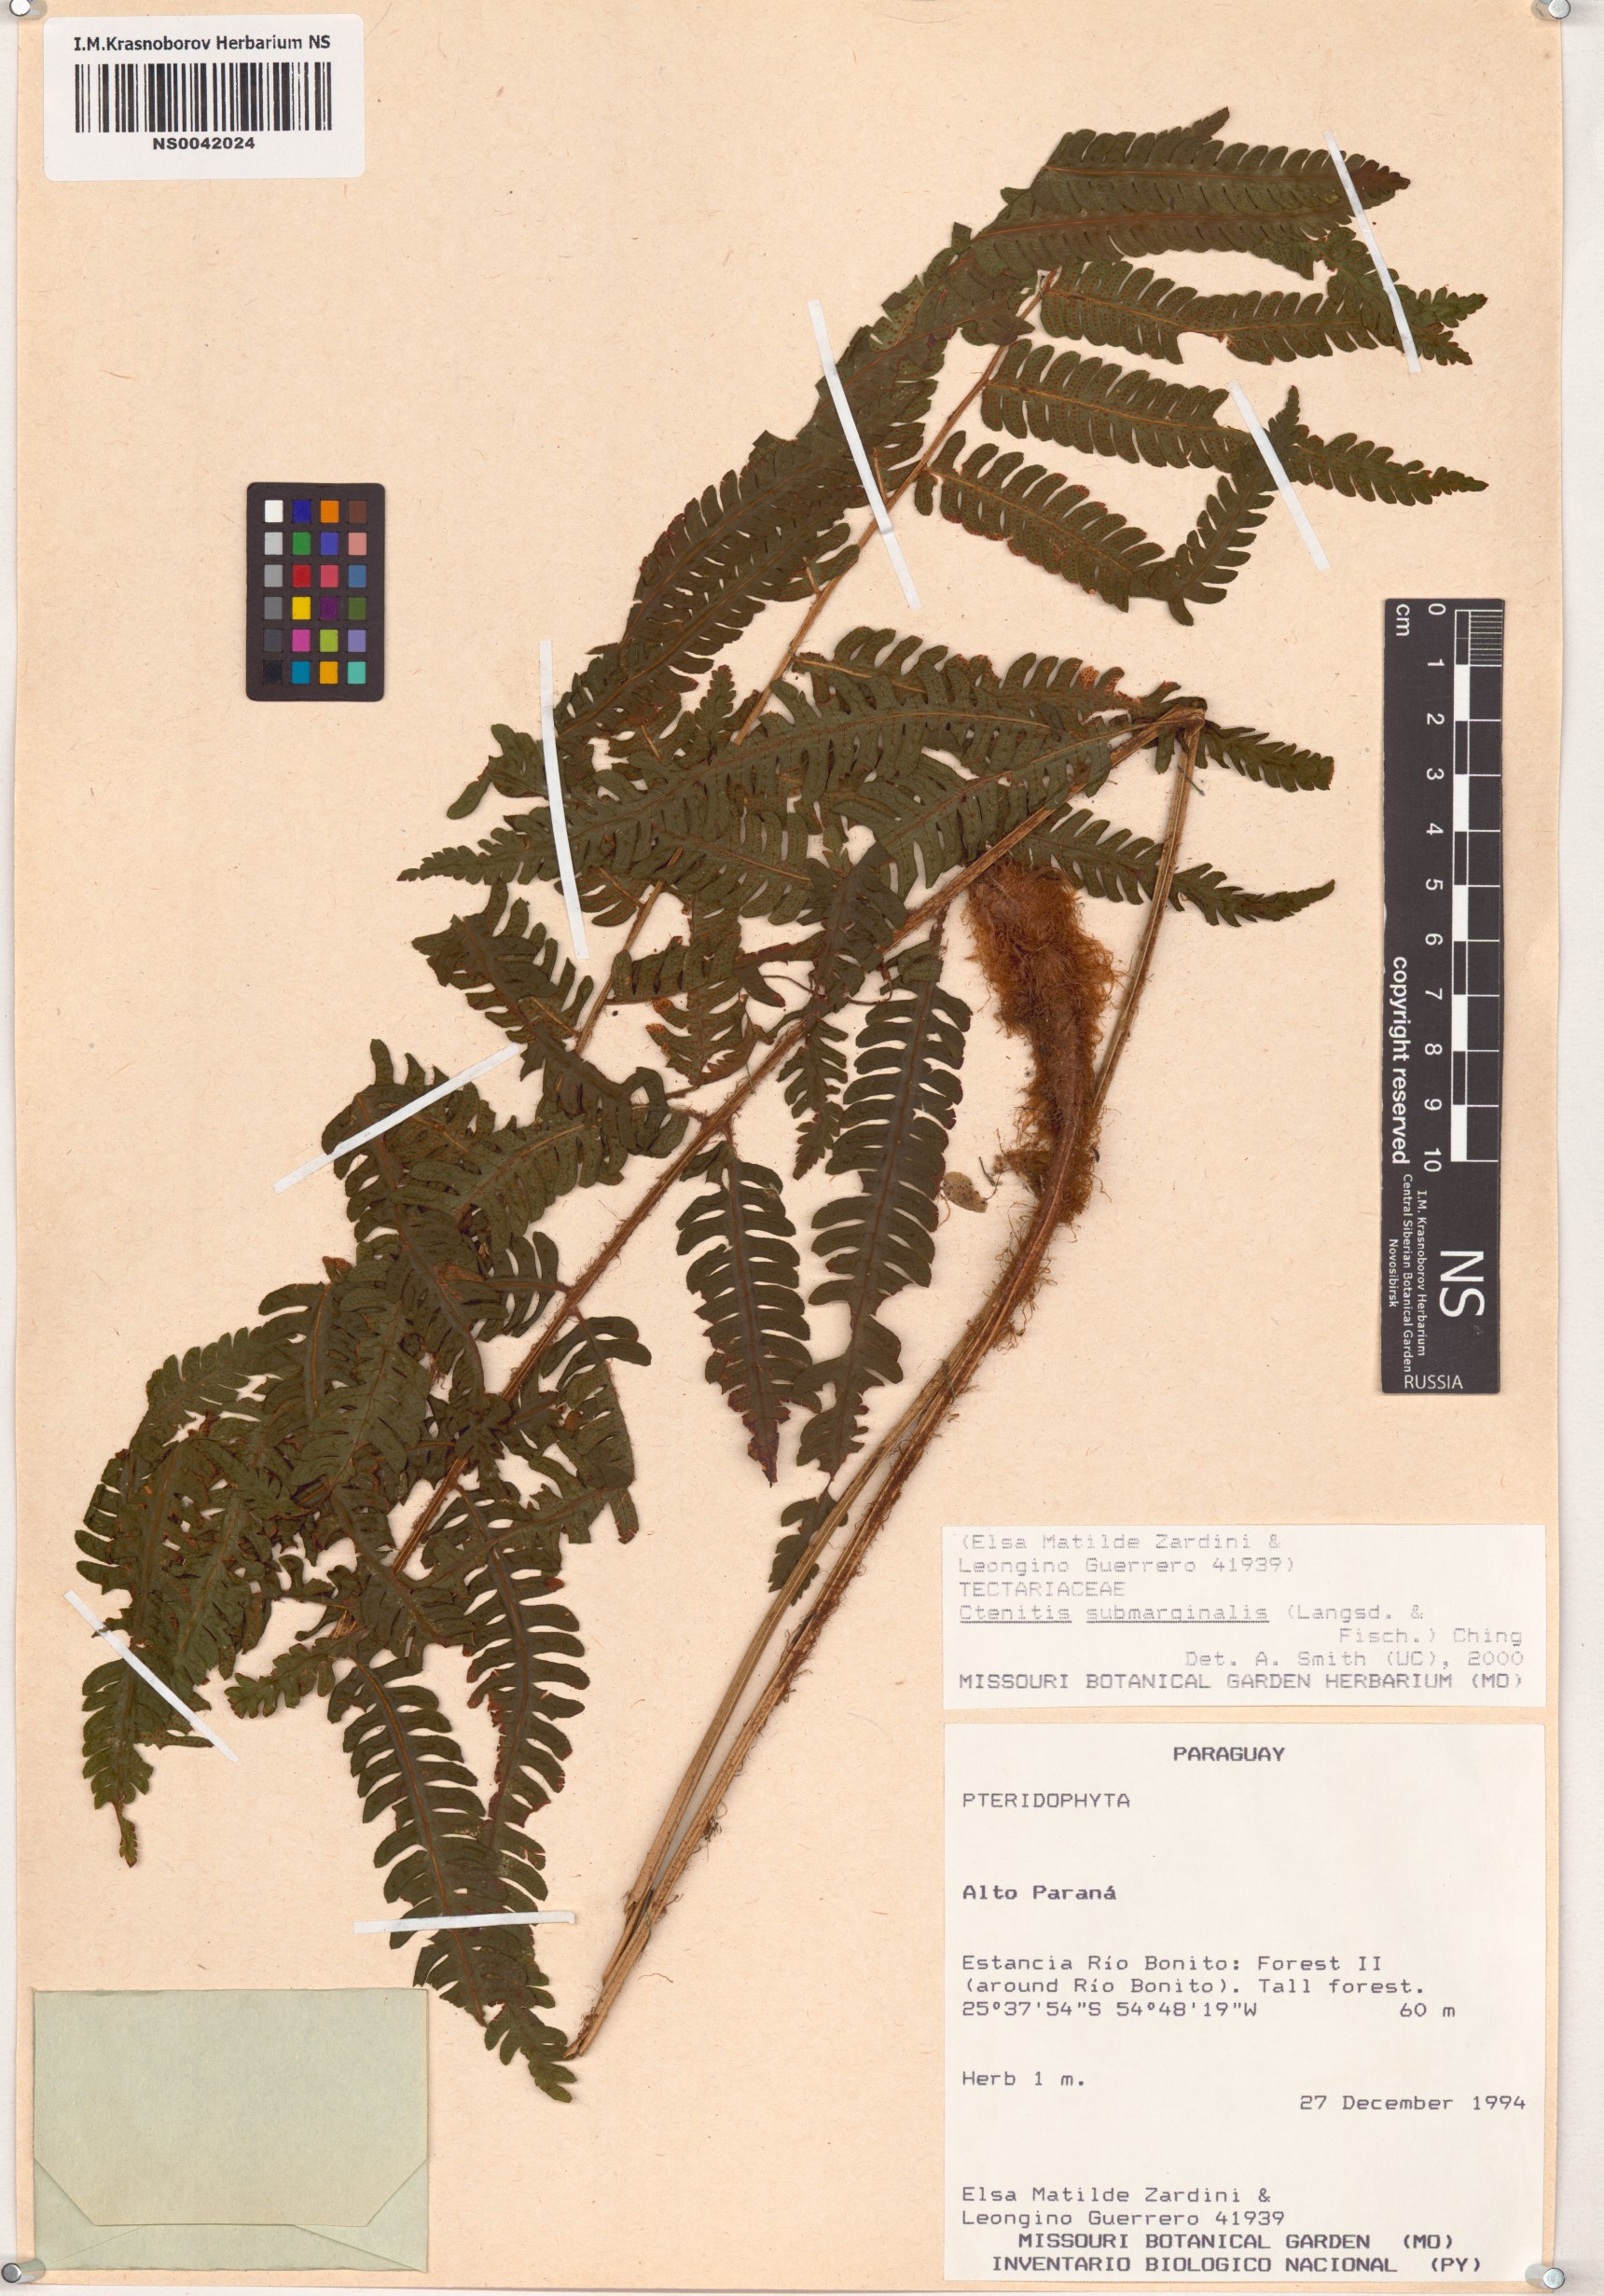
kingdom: Plantae
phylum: Tracheophyta
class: Polypodiopsida
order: Polypodiales
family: Dryopteridaceae
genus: Ctenitis
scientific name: Ctenitis submarginalis
